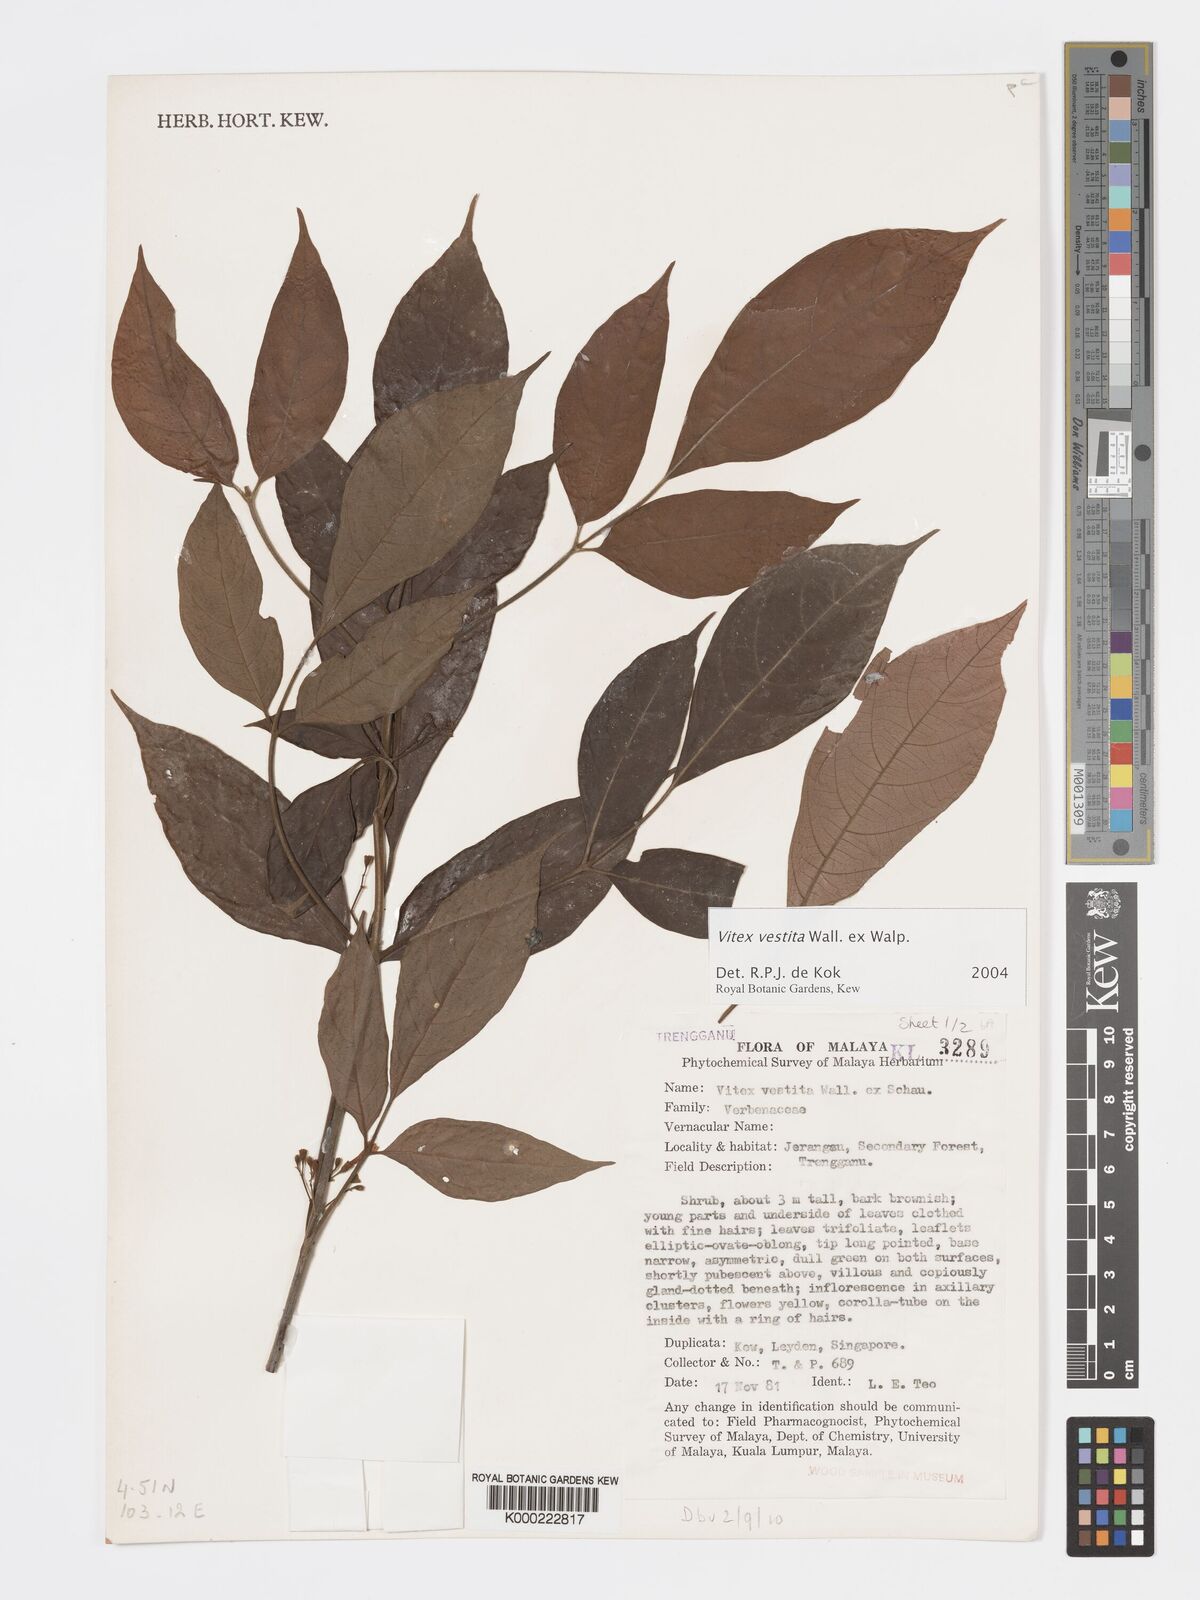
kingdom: Plantae
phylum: Tracheophyta
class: Magnoliopsida
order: Lamiales
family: Lamiaceae
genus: Vitex
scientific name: Vitex vestita
